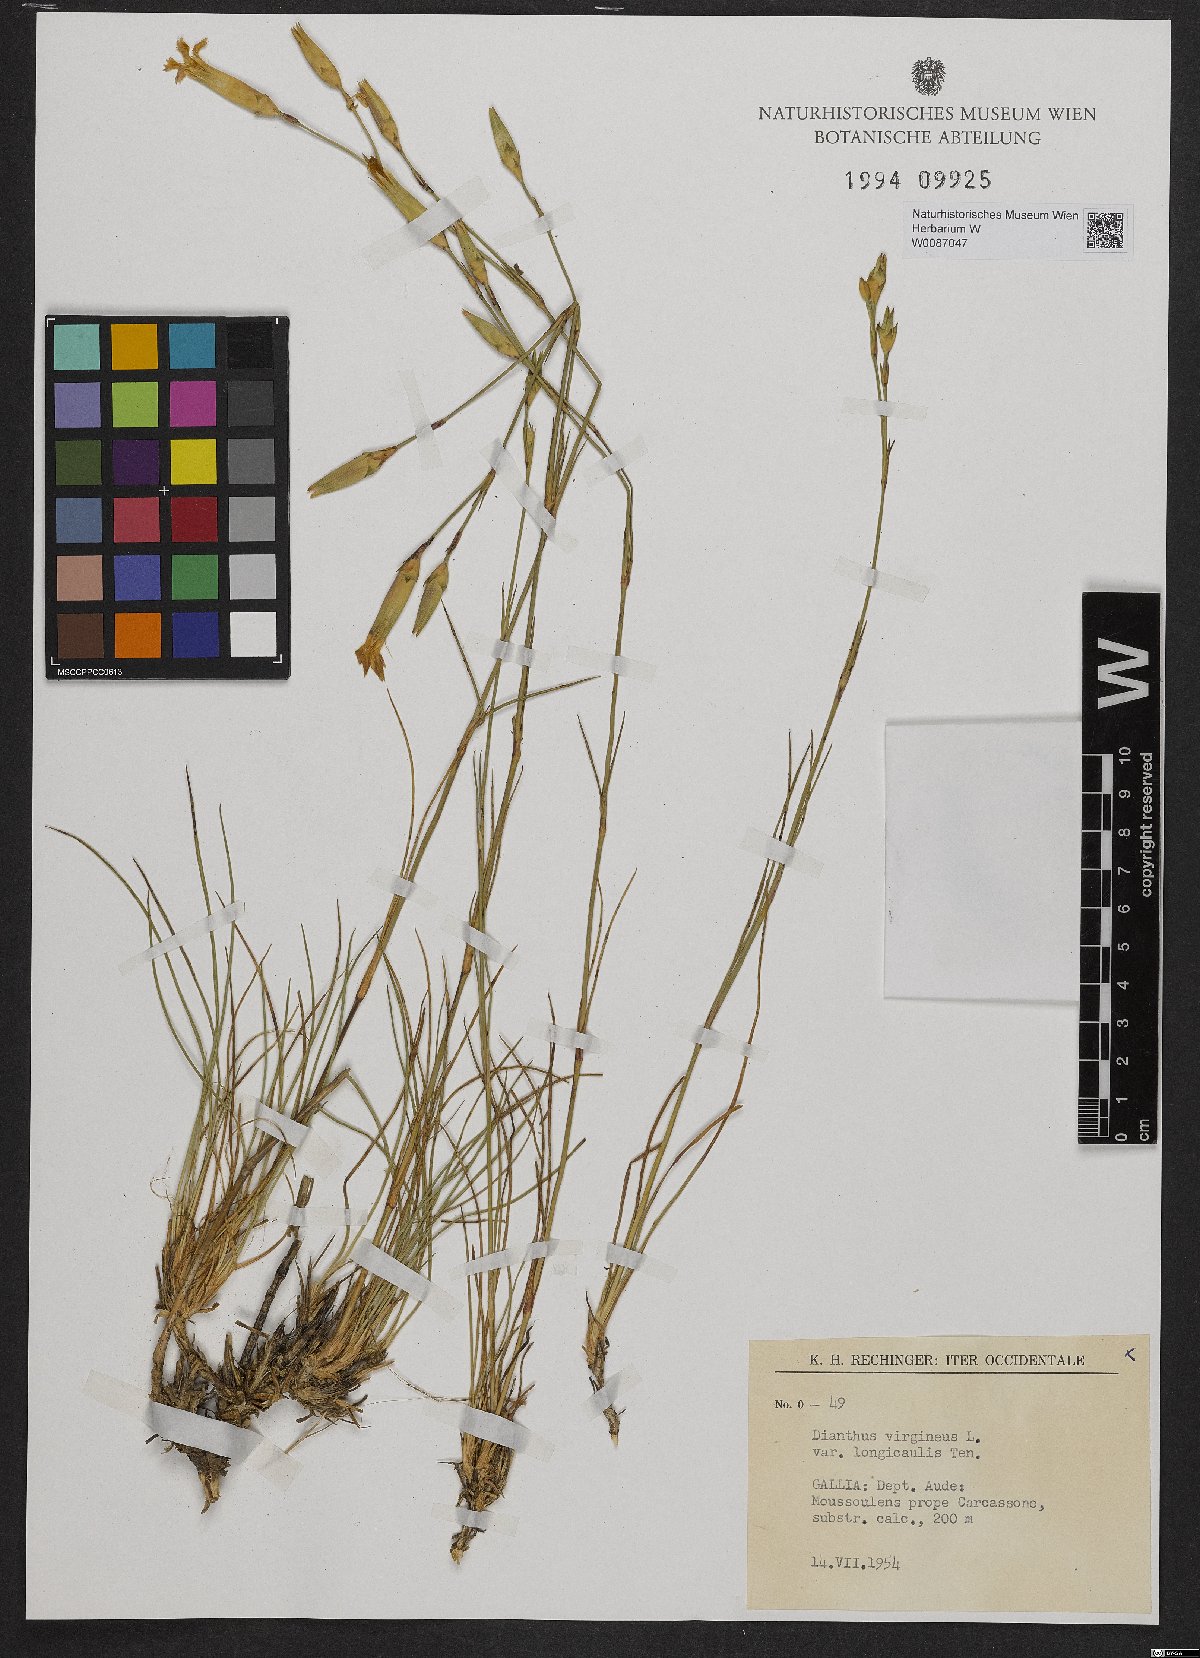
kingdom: Plantae
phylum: Tracheophyta
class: Magnoliopsida
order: Caryophyllales
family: Caryophyllaceae
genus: Dianthus
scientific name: Dianthus virgineus
